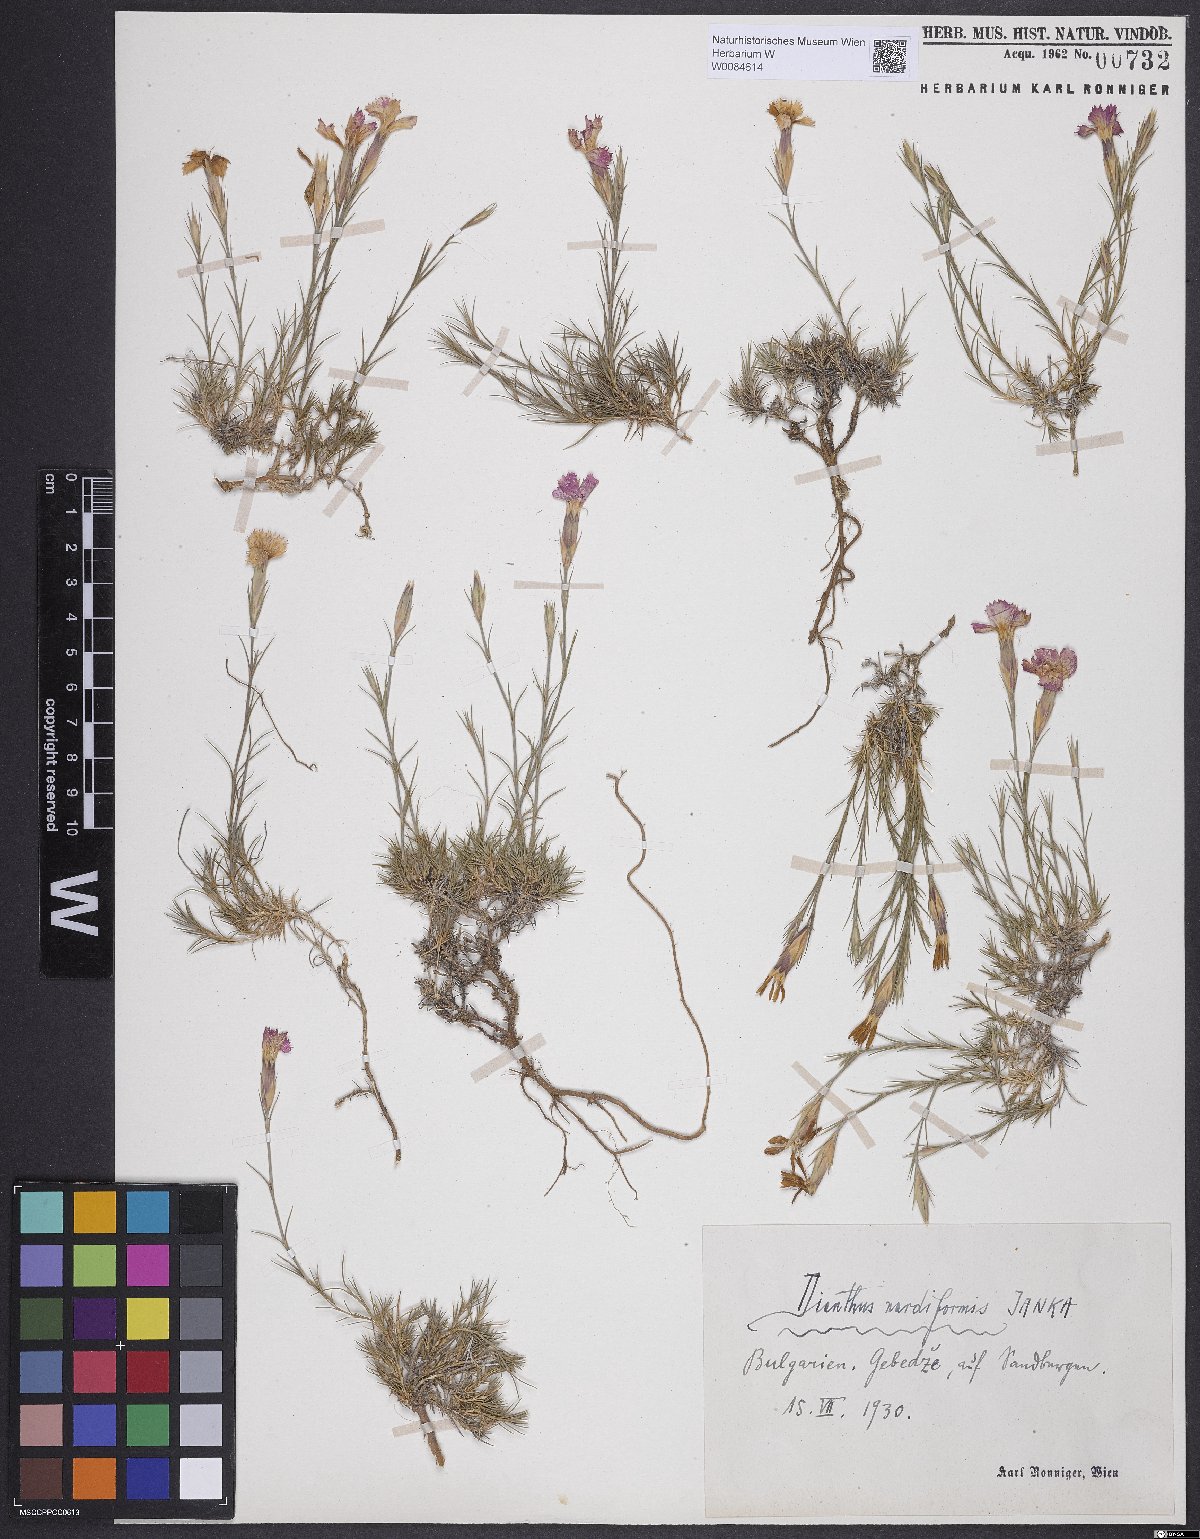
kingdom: Plantae
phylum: Tracheophyta
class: Magnoliopsida
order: Caryophyllales
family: Caryophyllaceae
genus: Dianthus
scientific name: Dianthus nardiformis
